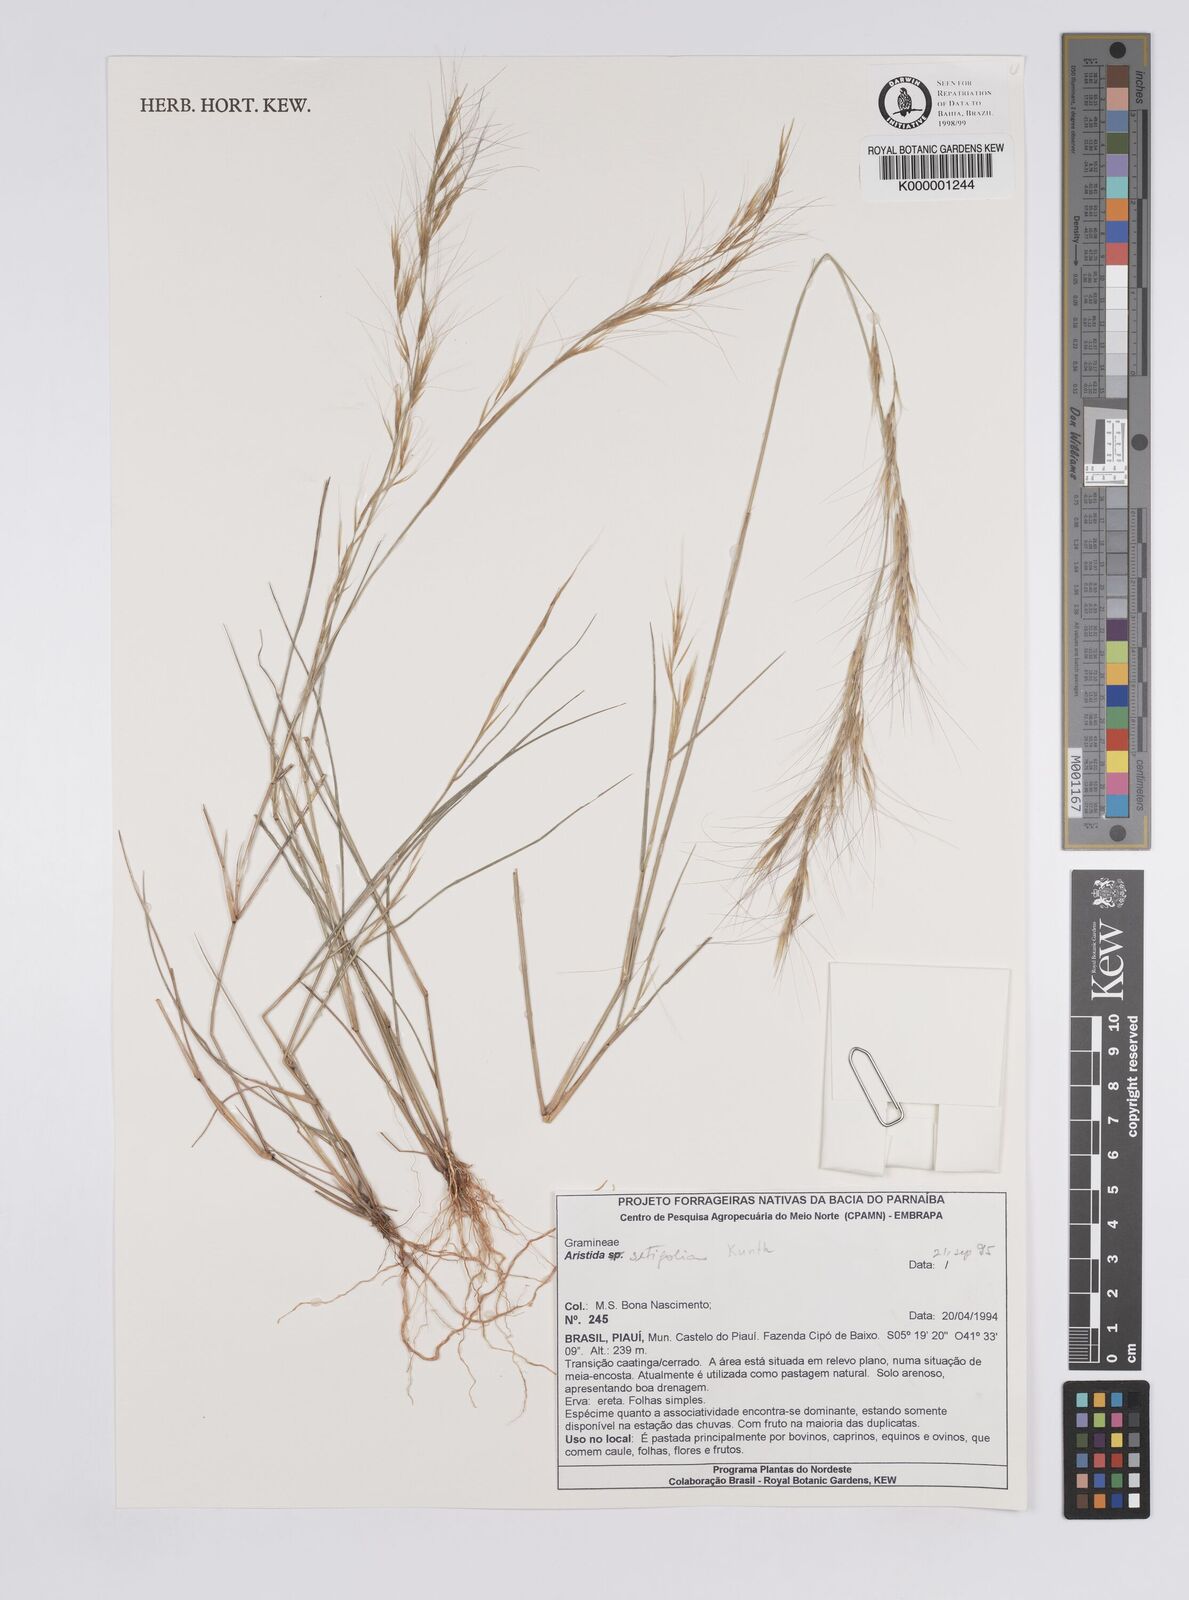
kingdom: Plantae
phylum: Tracheophyta
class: Liliopsida
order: Poales
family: Poaceae
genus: Aristida
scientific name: Aristida setifolia
